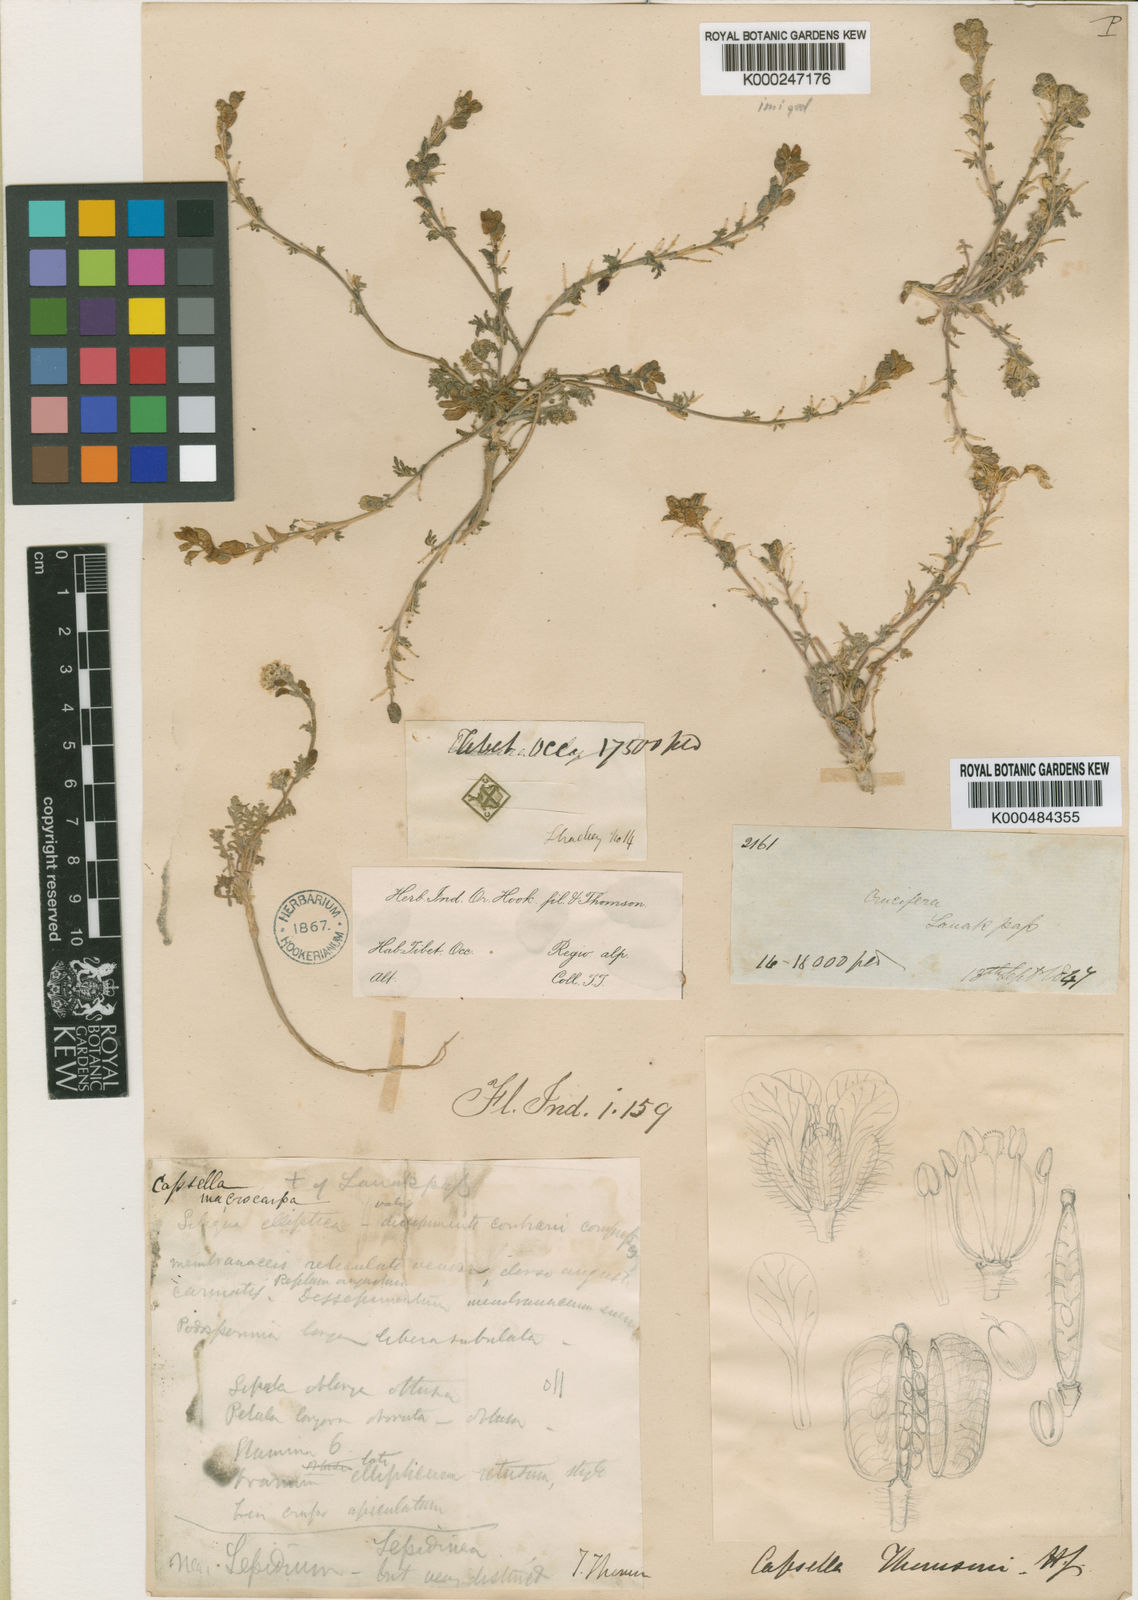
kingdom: Plantae
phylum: Tracheophyta
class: Magnoliopsida
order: Brassicales
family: Brassicaceae
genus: Smelowskia
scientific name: Smelowskia tibetica
